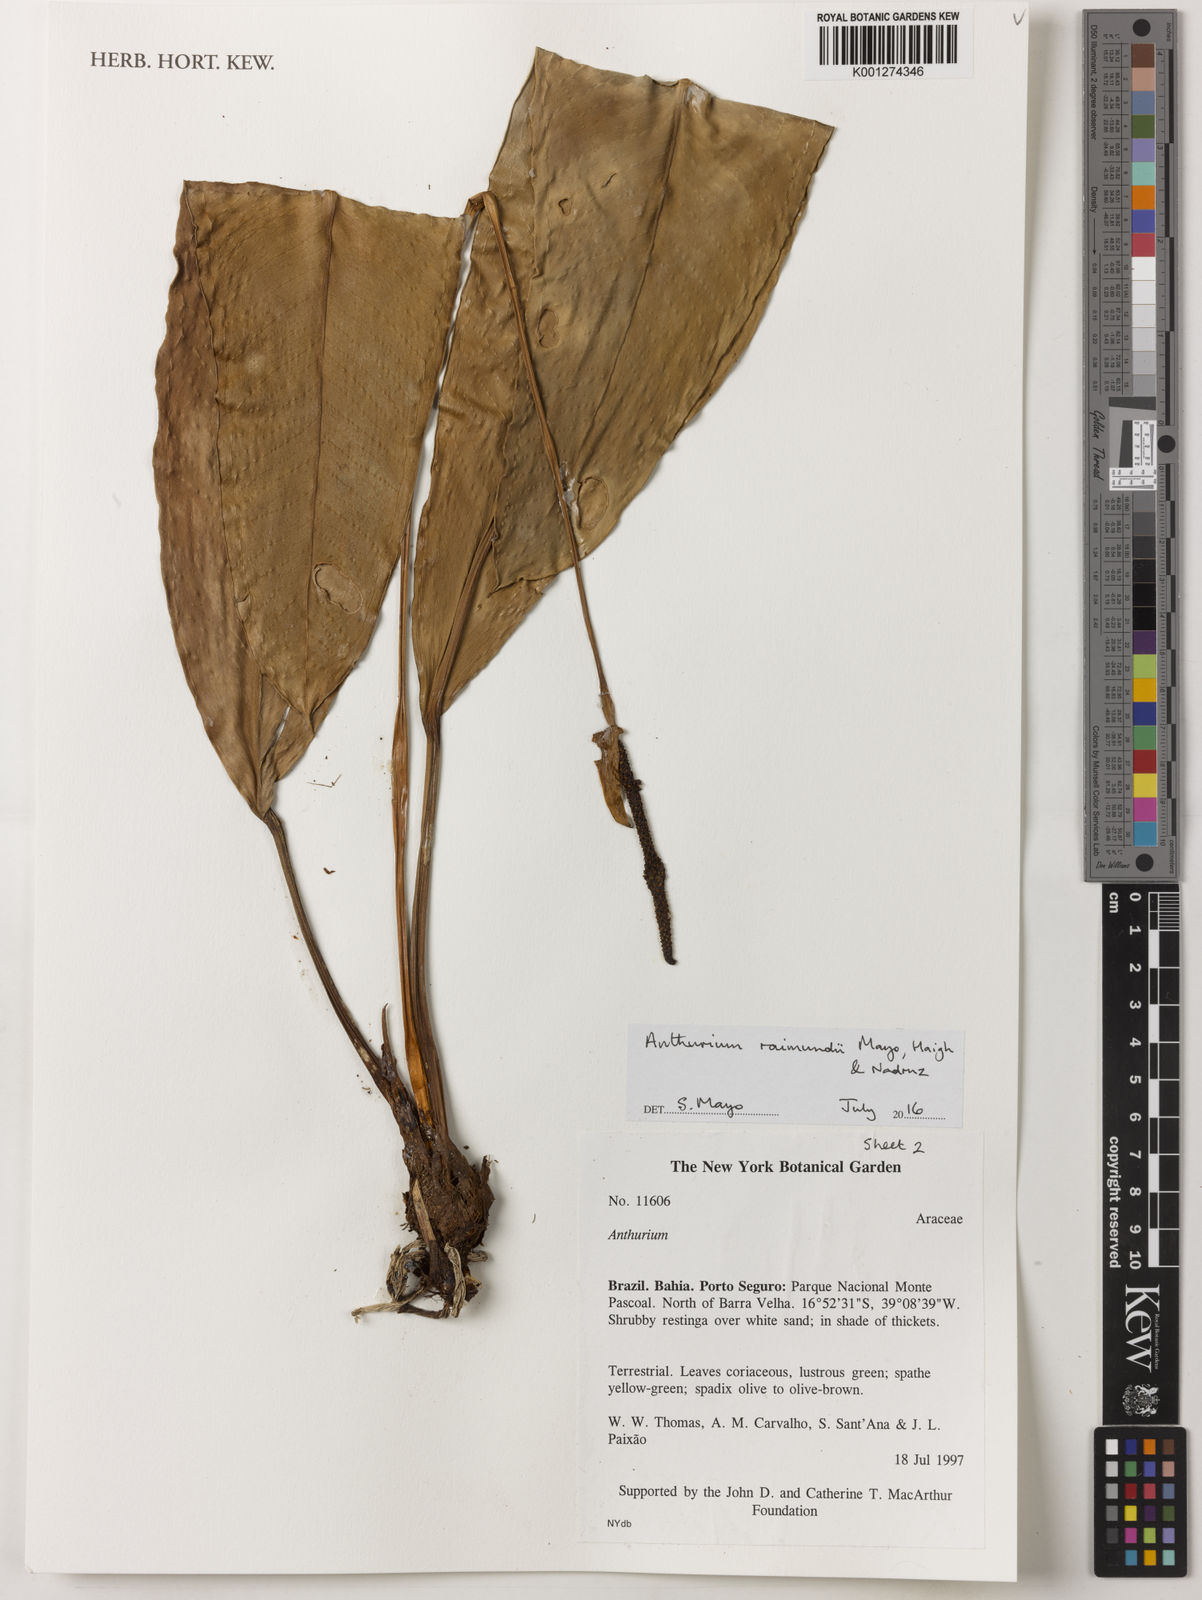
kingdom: Plantae
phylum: Tracheophyta
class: Liliopsida
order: Alismatales
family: Araceae
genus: Anthurium
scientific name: Anthurium raimundii
